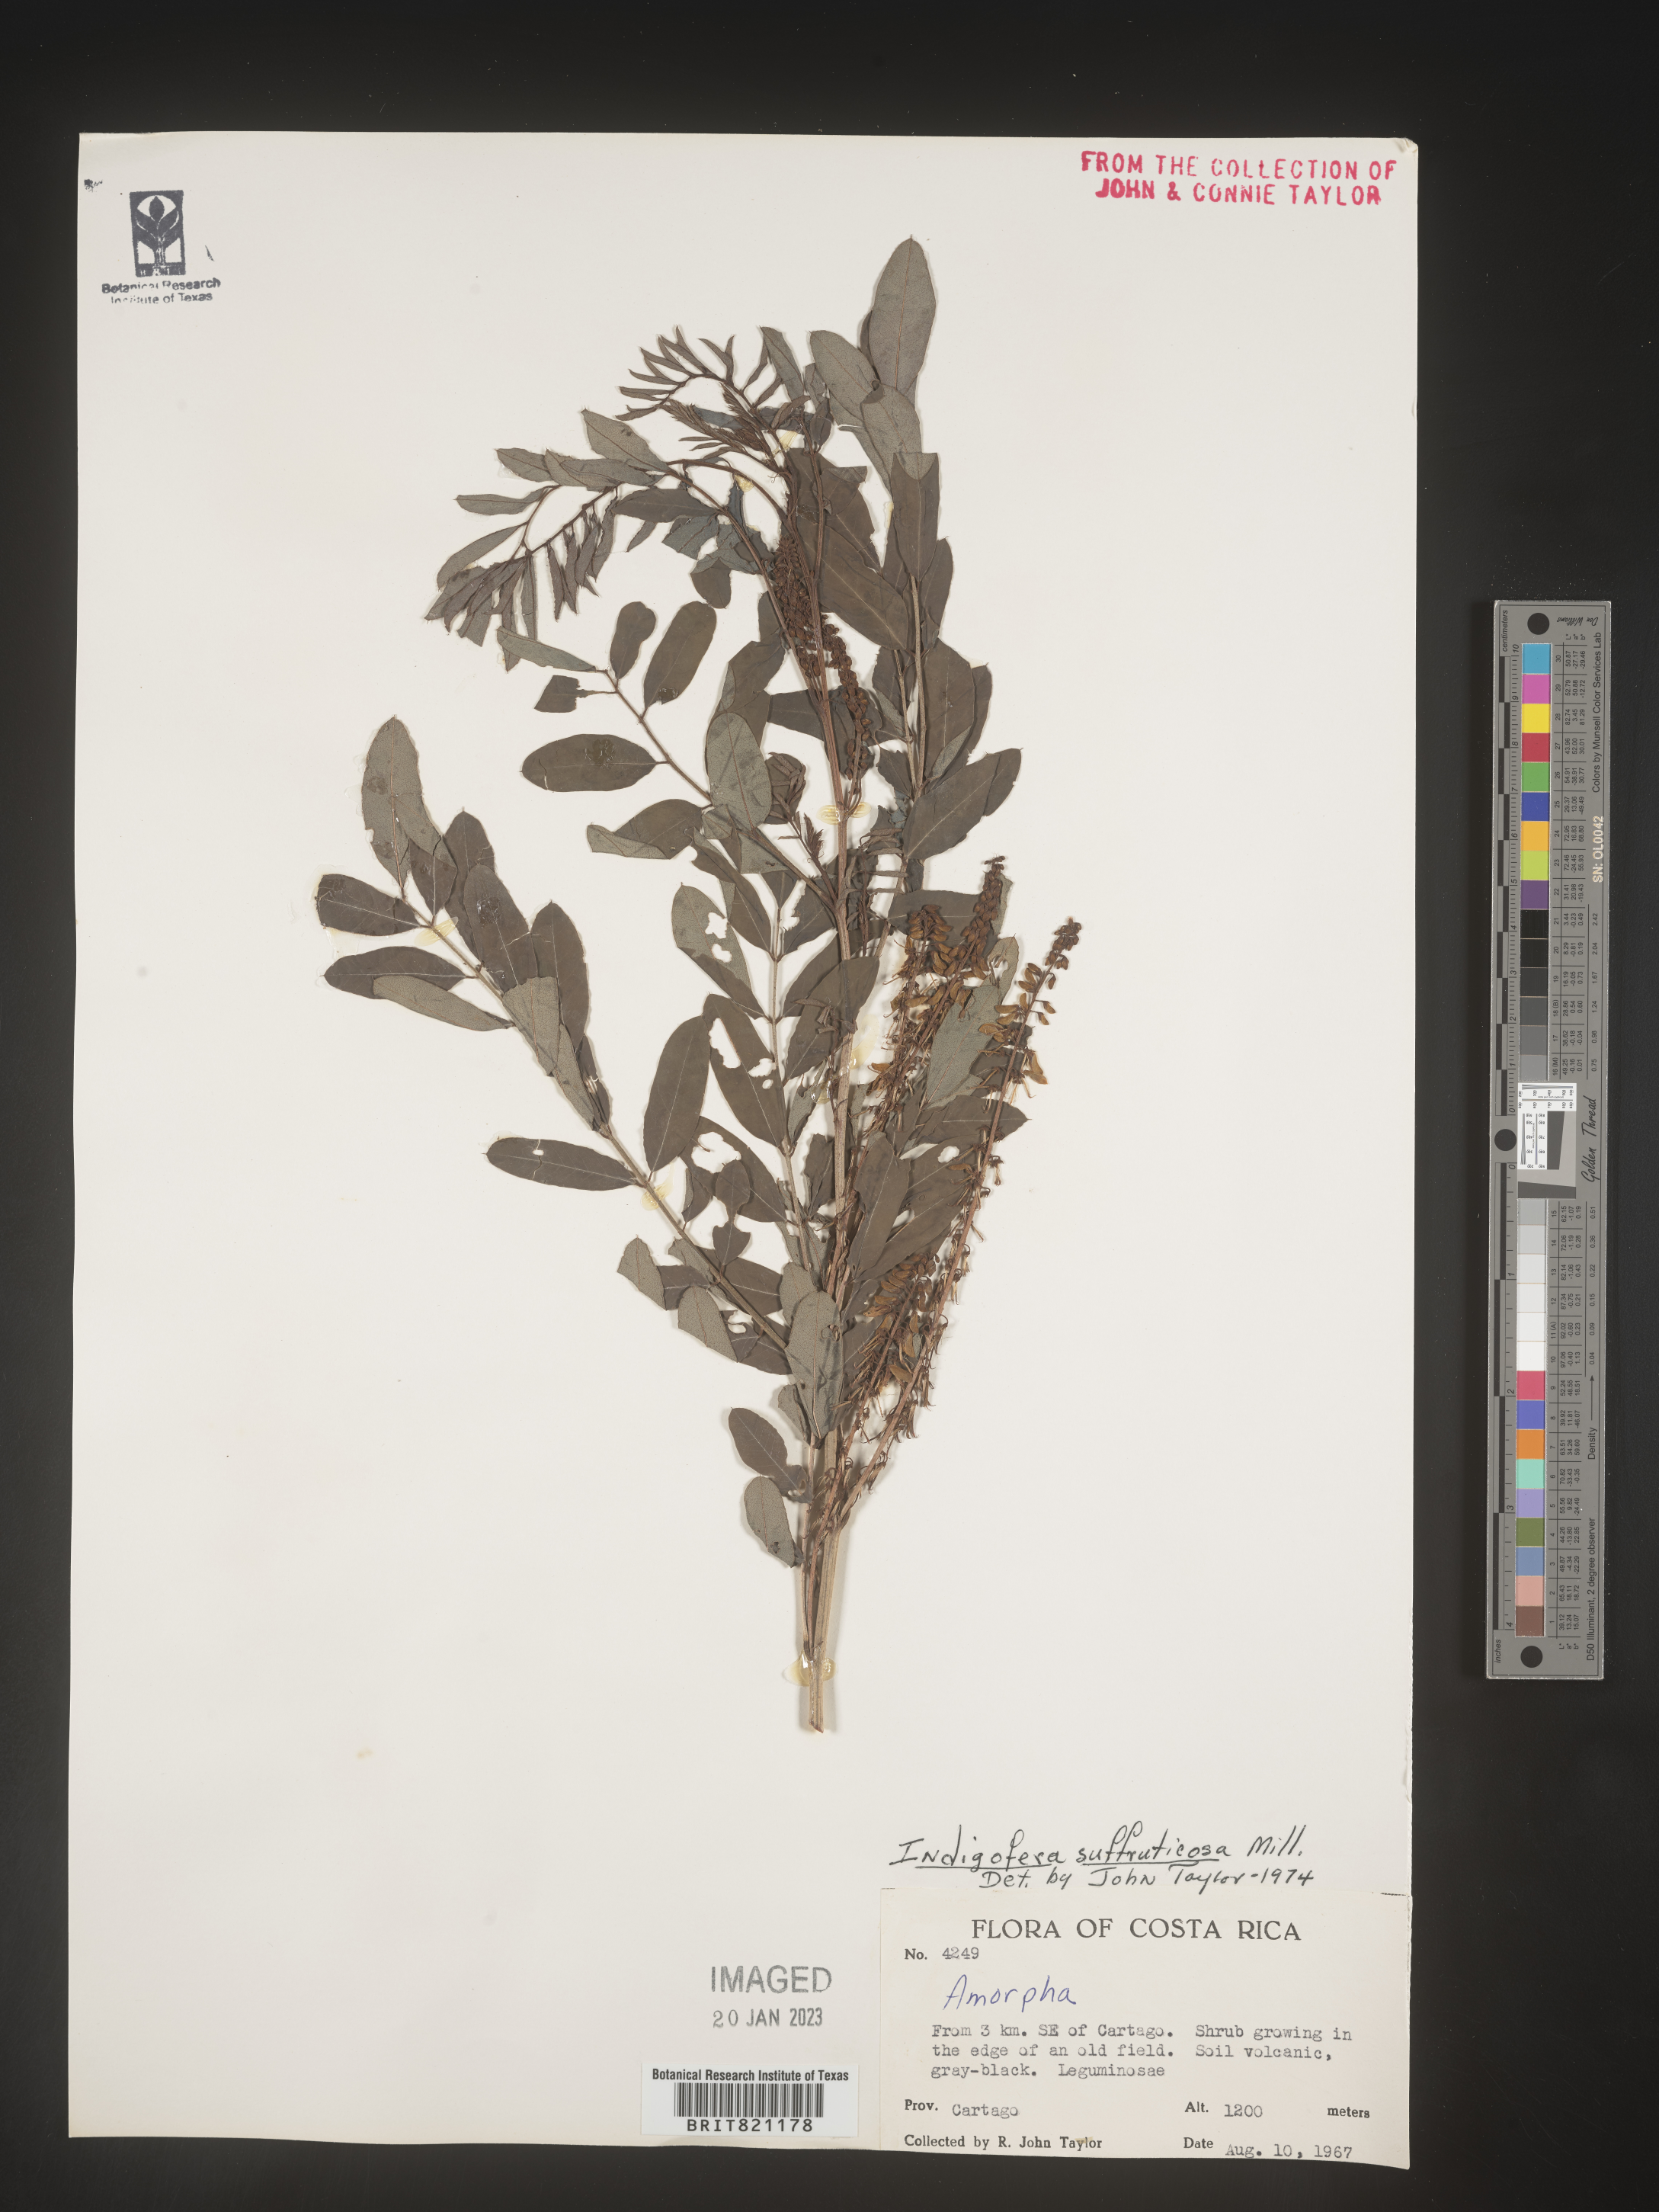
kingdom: Plantae
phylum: Tracheophyta
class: Magnoliopsida
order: Fabales
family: Fabaceae
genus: Indigofera
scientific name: Indigofera
